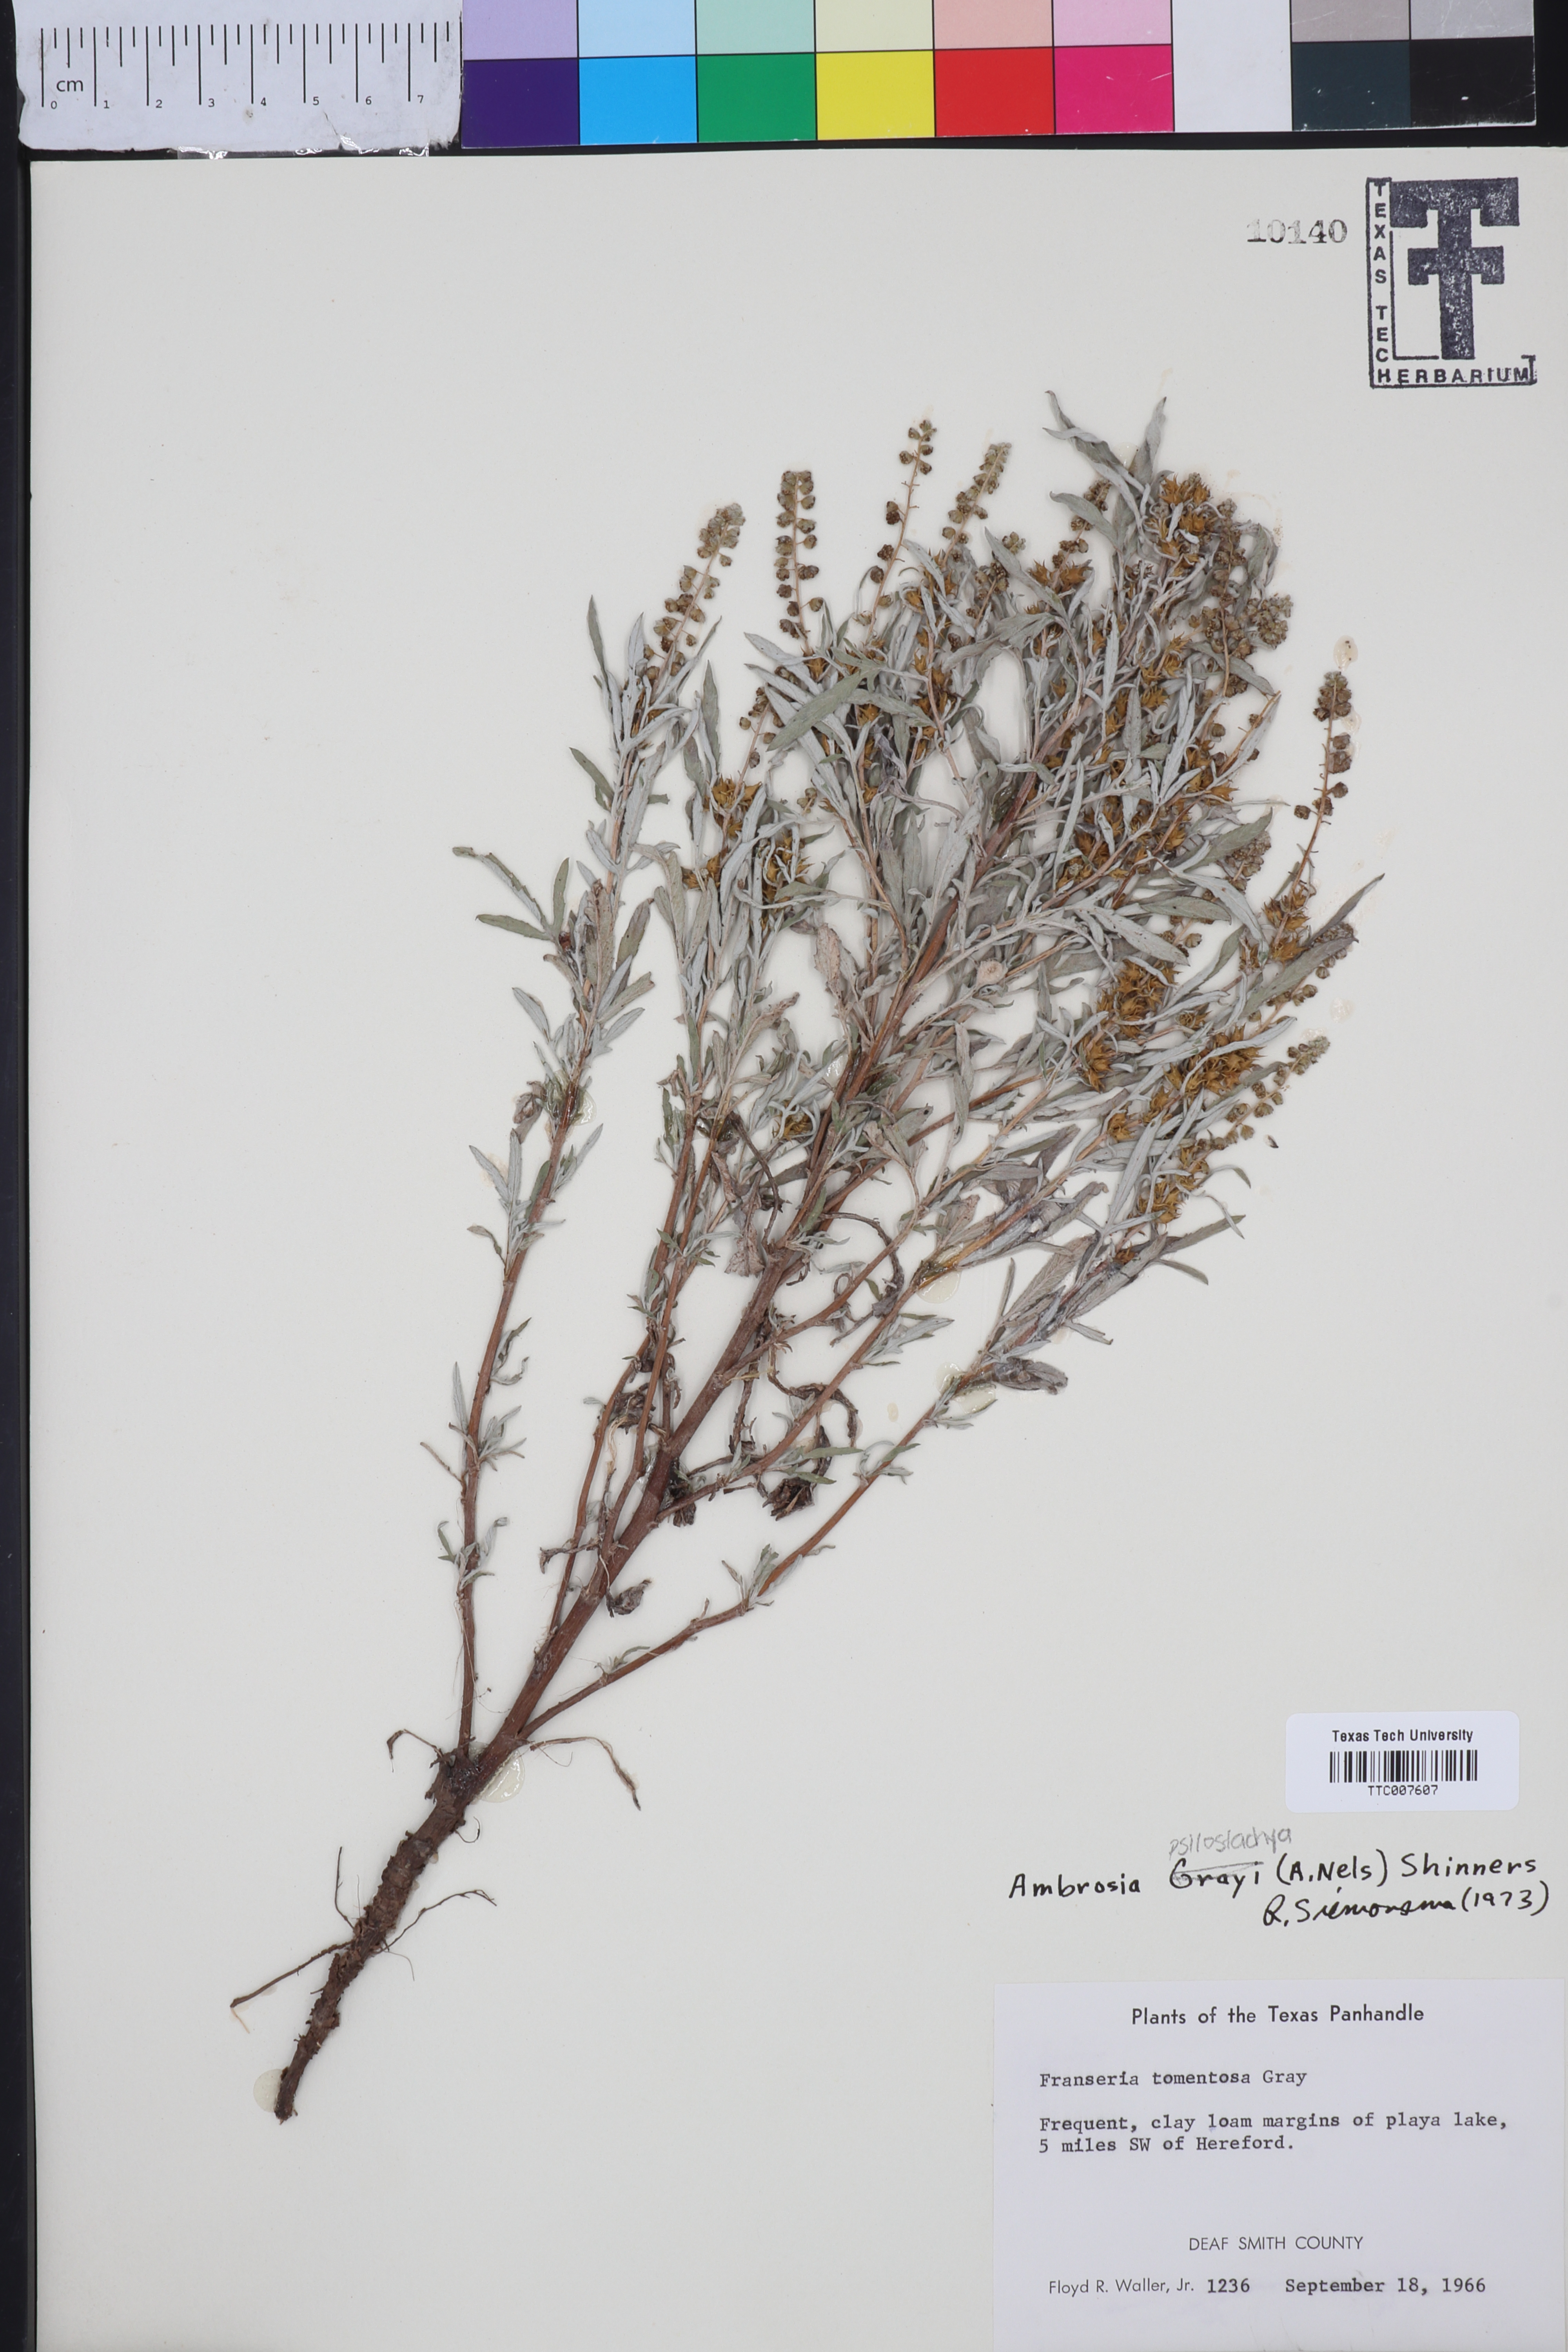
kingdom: Plantae
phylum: Tracheophyta
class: Magnoliopsida
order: Asterales
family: Asteraceae
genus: Ambrosia
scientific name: Ambrosia grayi
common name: Bur ragweed
